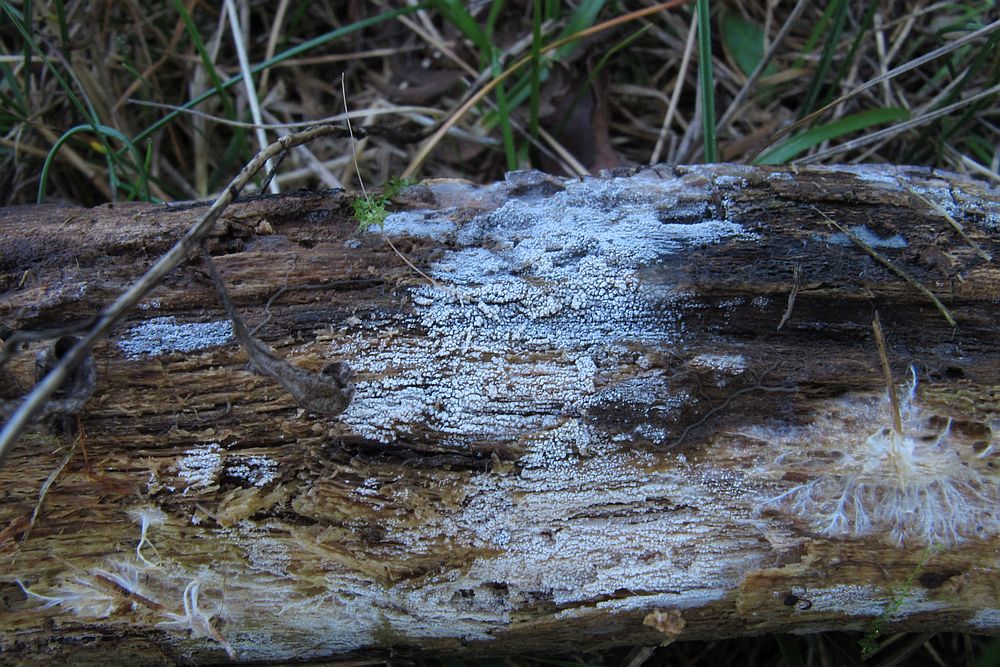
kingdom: Fungi
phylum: Basidiomycota
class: Agaricomycetes
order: Cantharellales
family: Hydnaceae
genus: Sistotrema
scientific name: Sistotrema brinkmannii
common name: bønnesporet kroneskorpe
